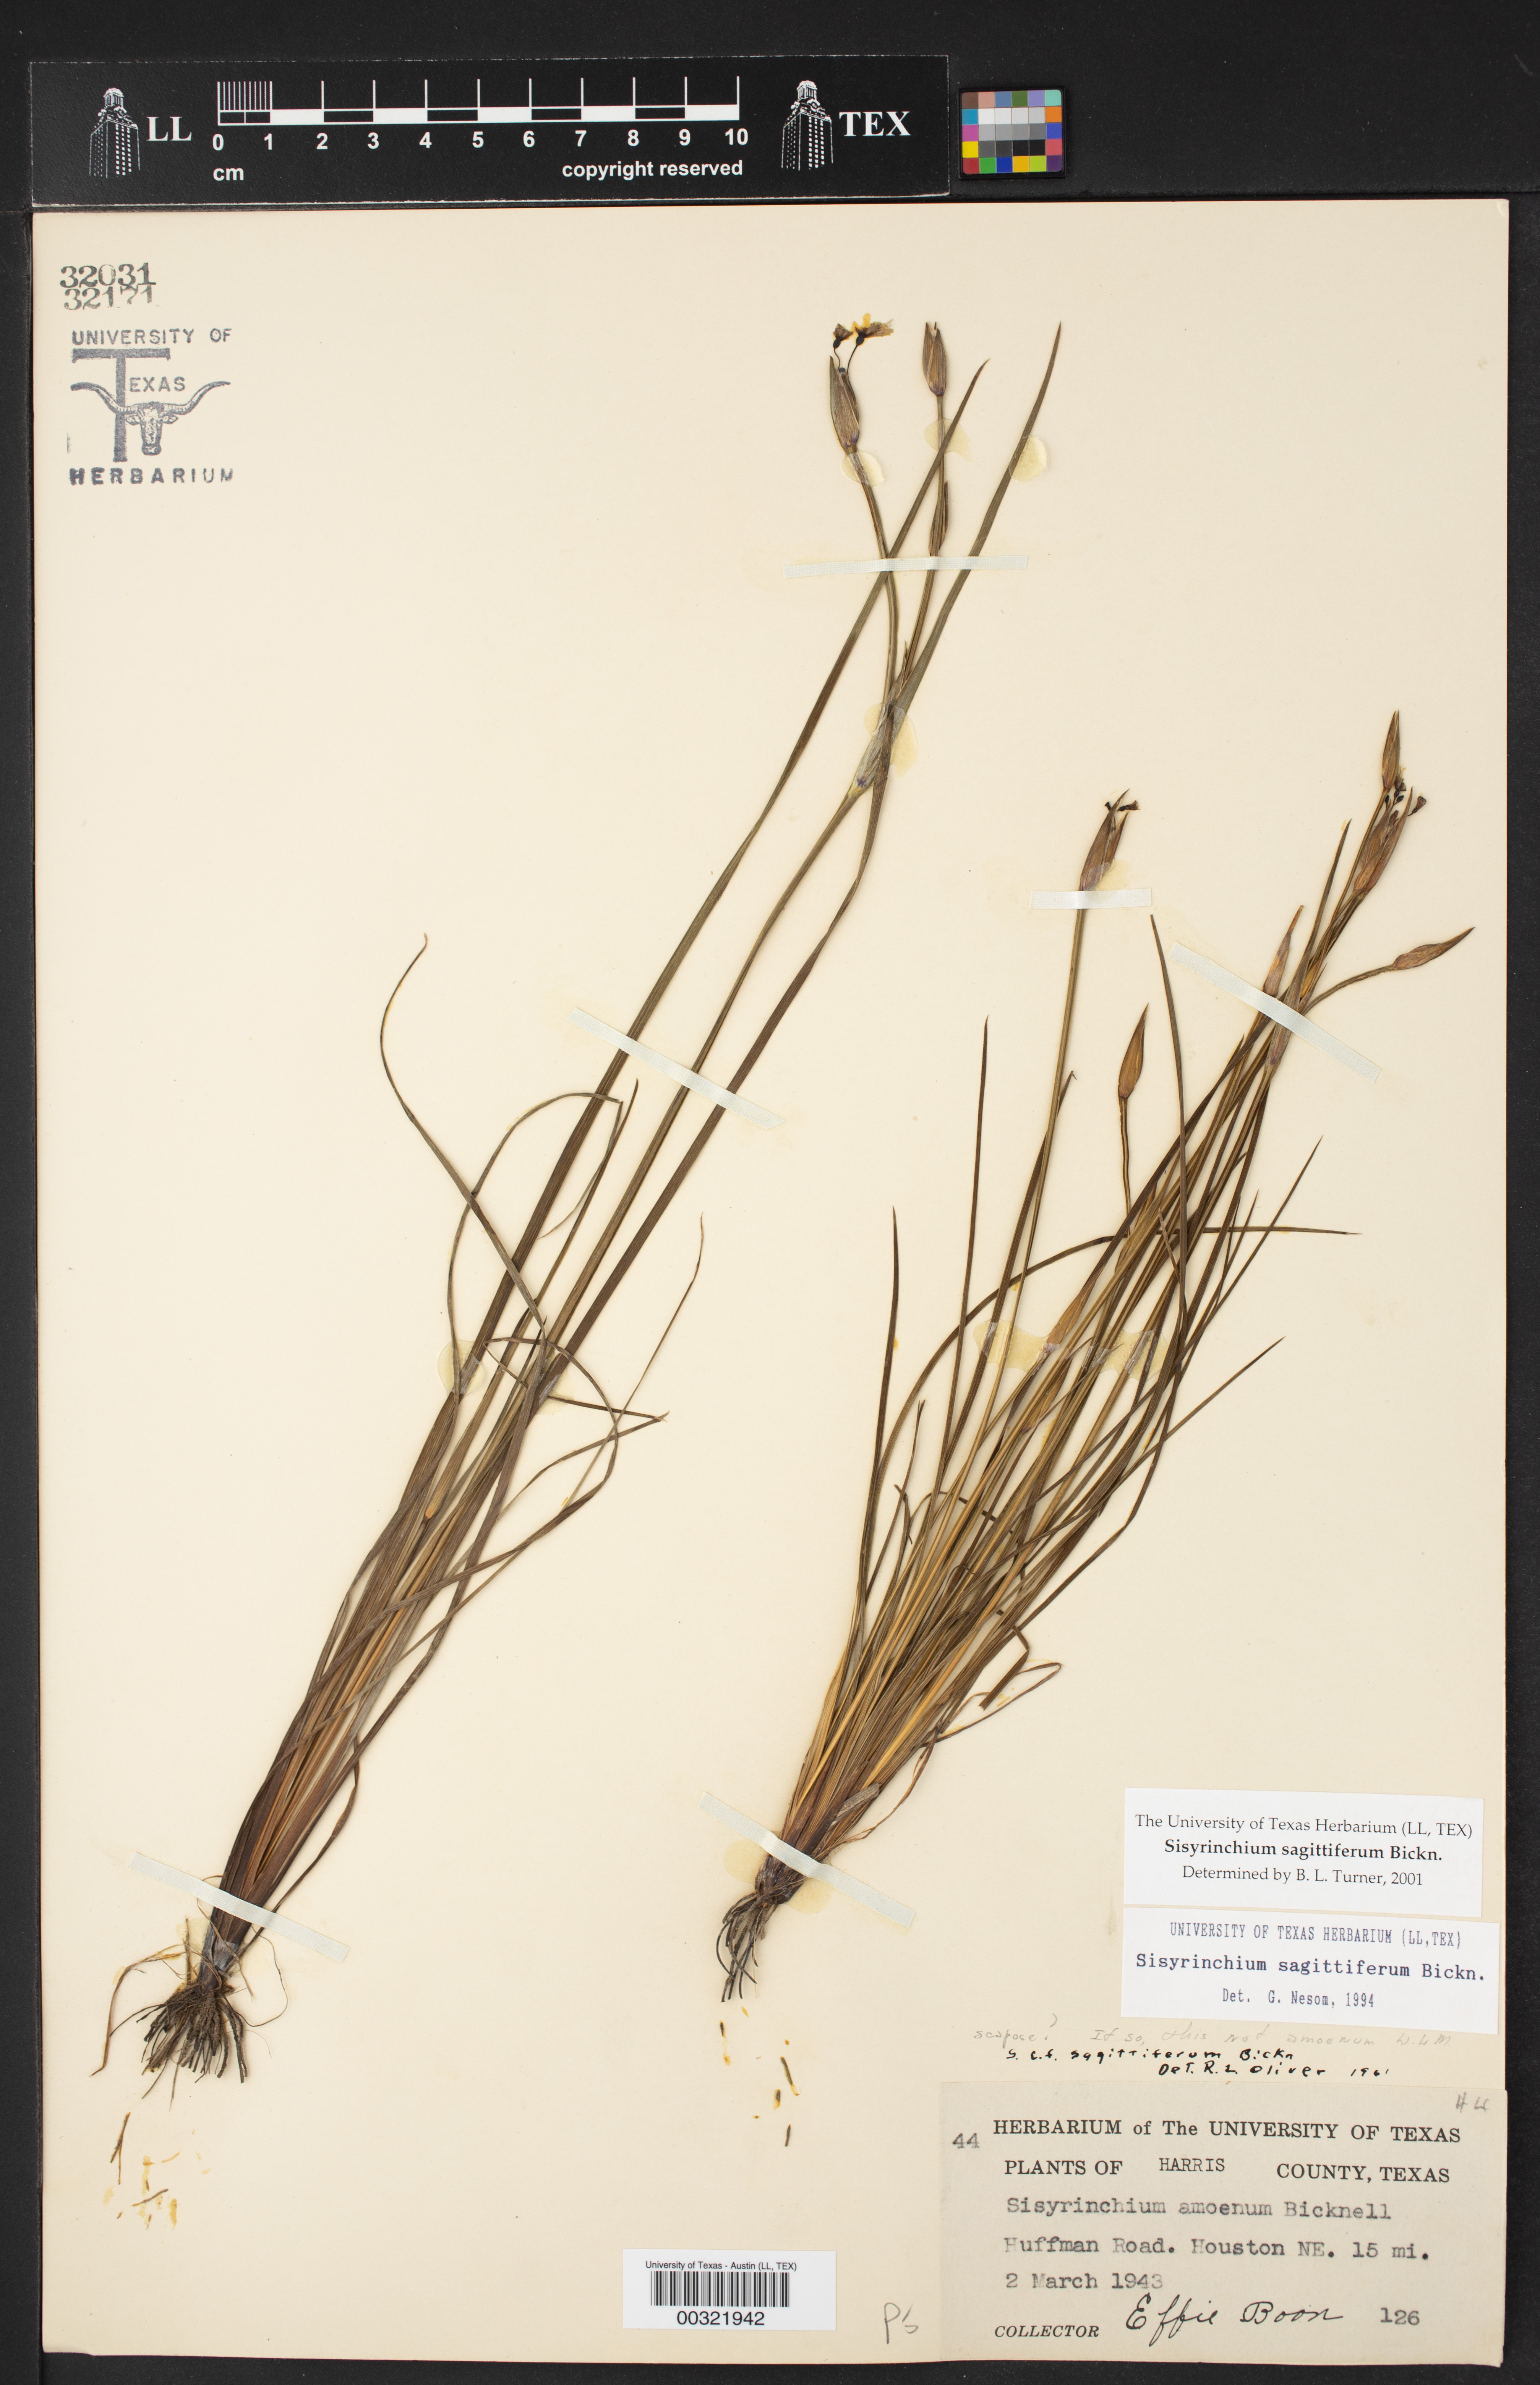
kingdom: Plantae
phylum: Tracheophyta
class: Liliopsida
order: Asparagales
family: Iridaceae
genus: Sisyrinchium
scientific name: Sisyrinchium sagittiferum
